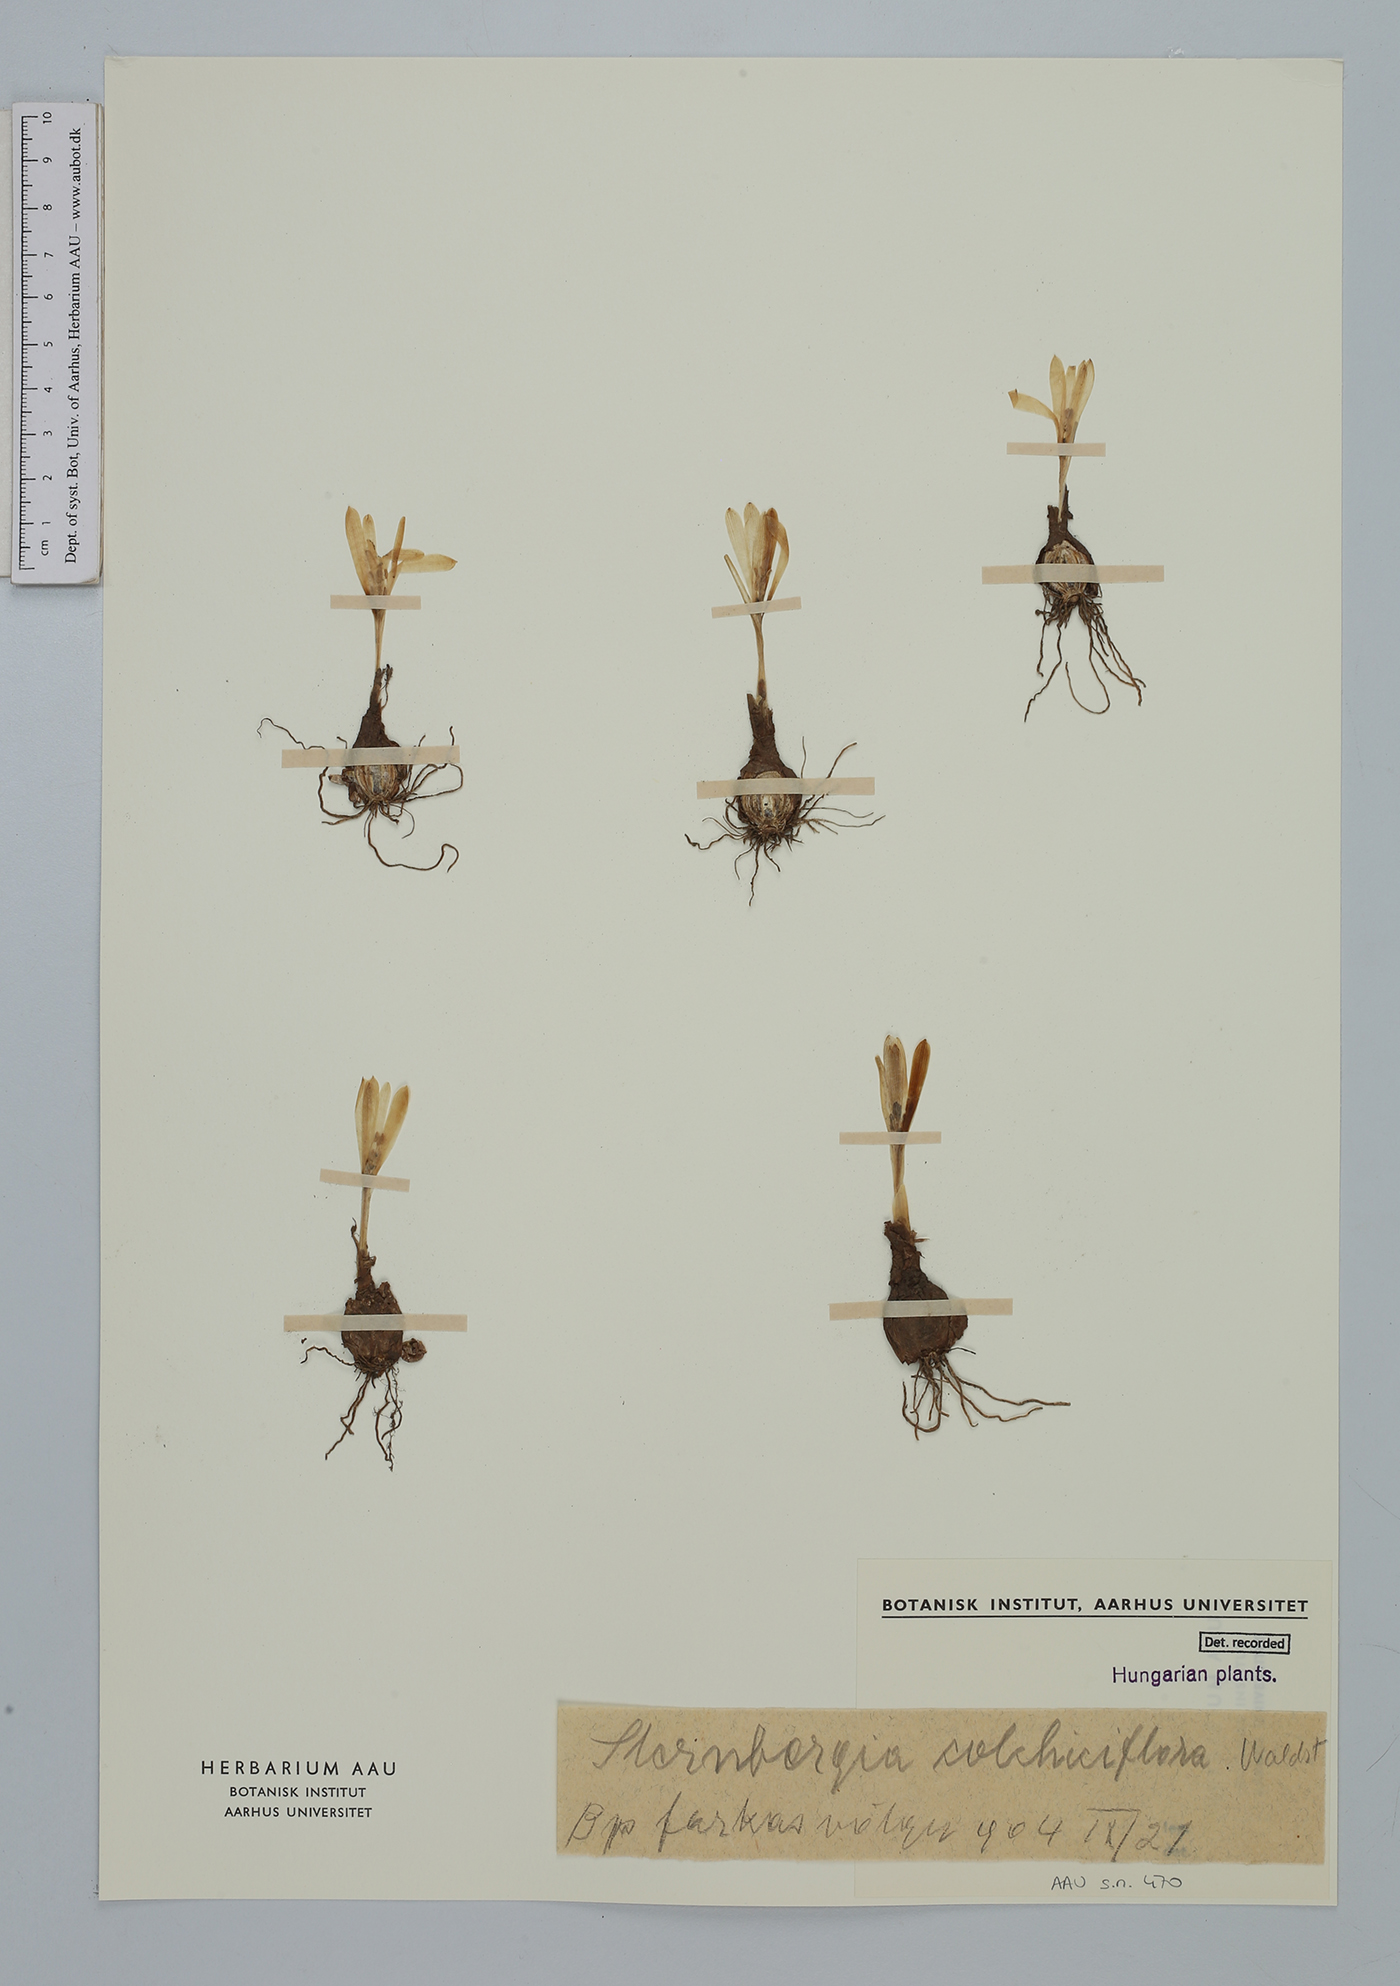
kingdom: Plantae
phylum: Tracheophyta
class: Liliopsida
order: Asparagales
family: Amaryllidaceae
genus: Sternbergia
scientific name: Sternbergia colchiciflora
